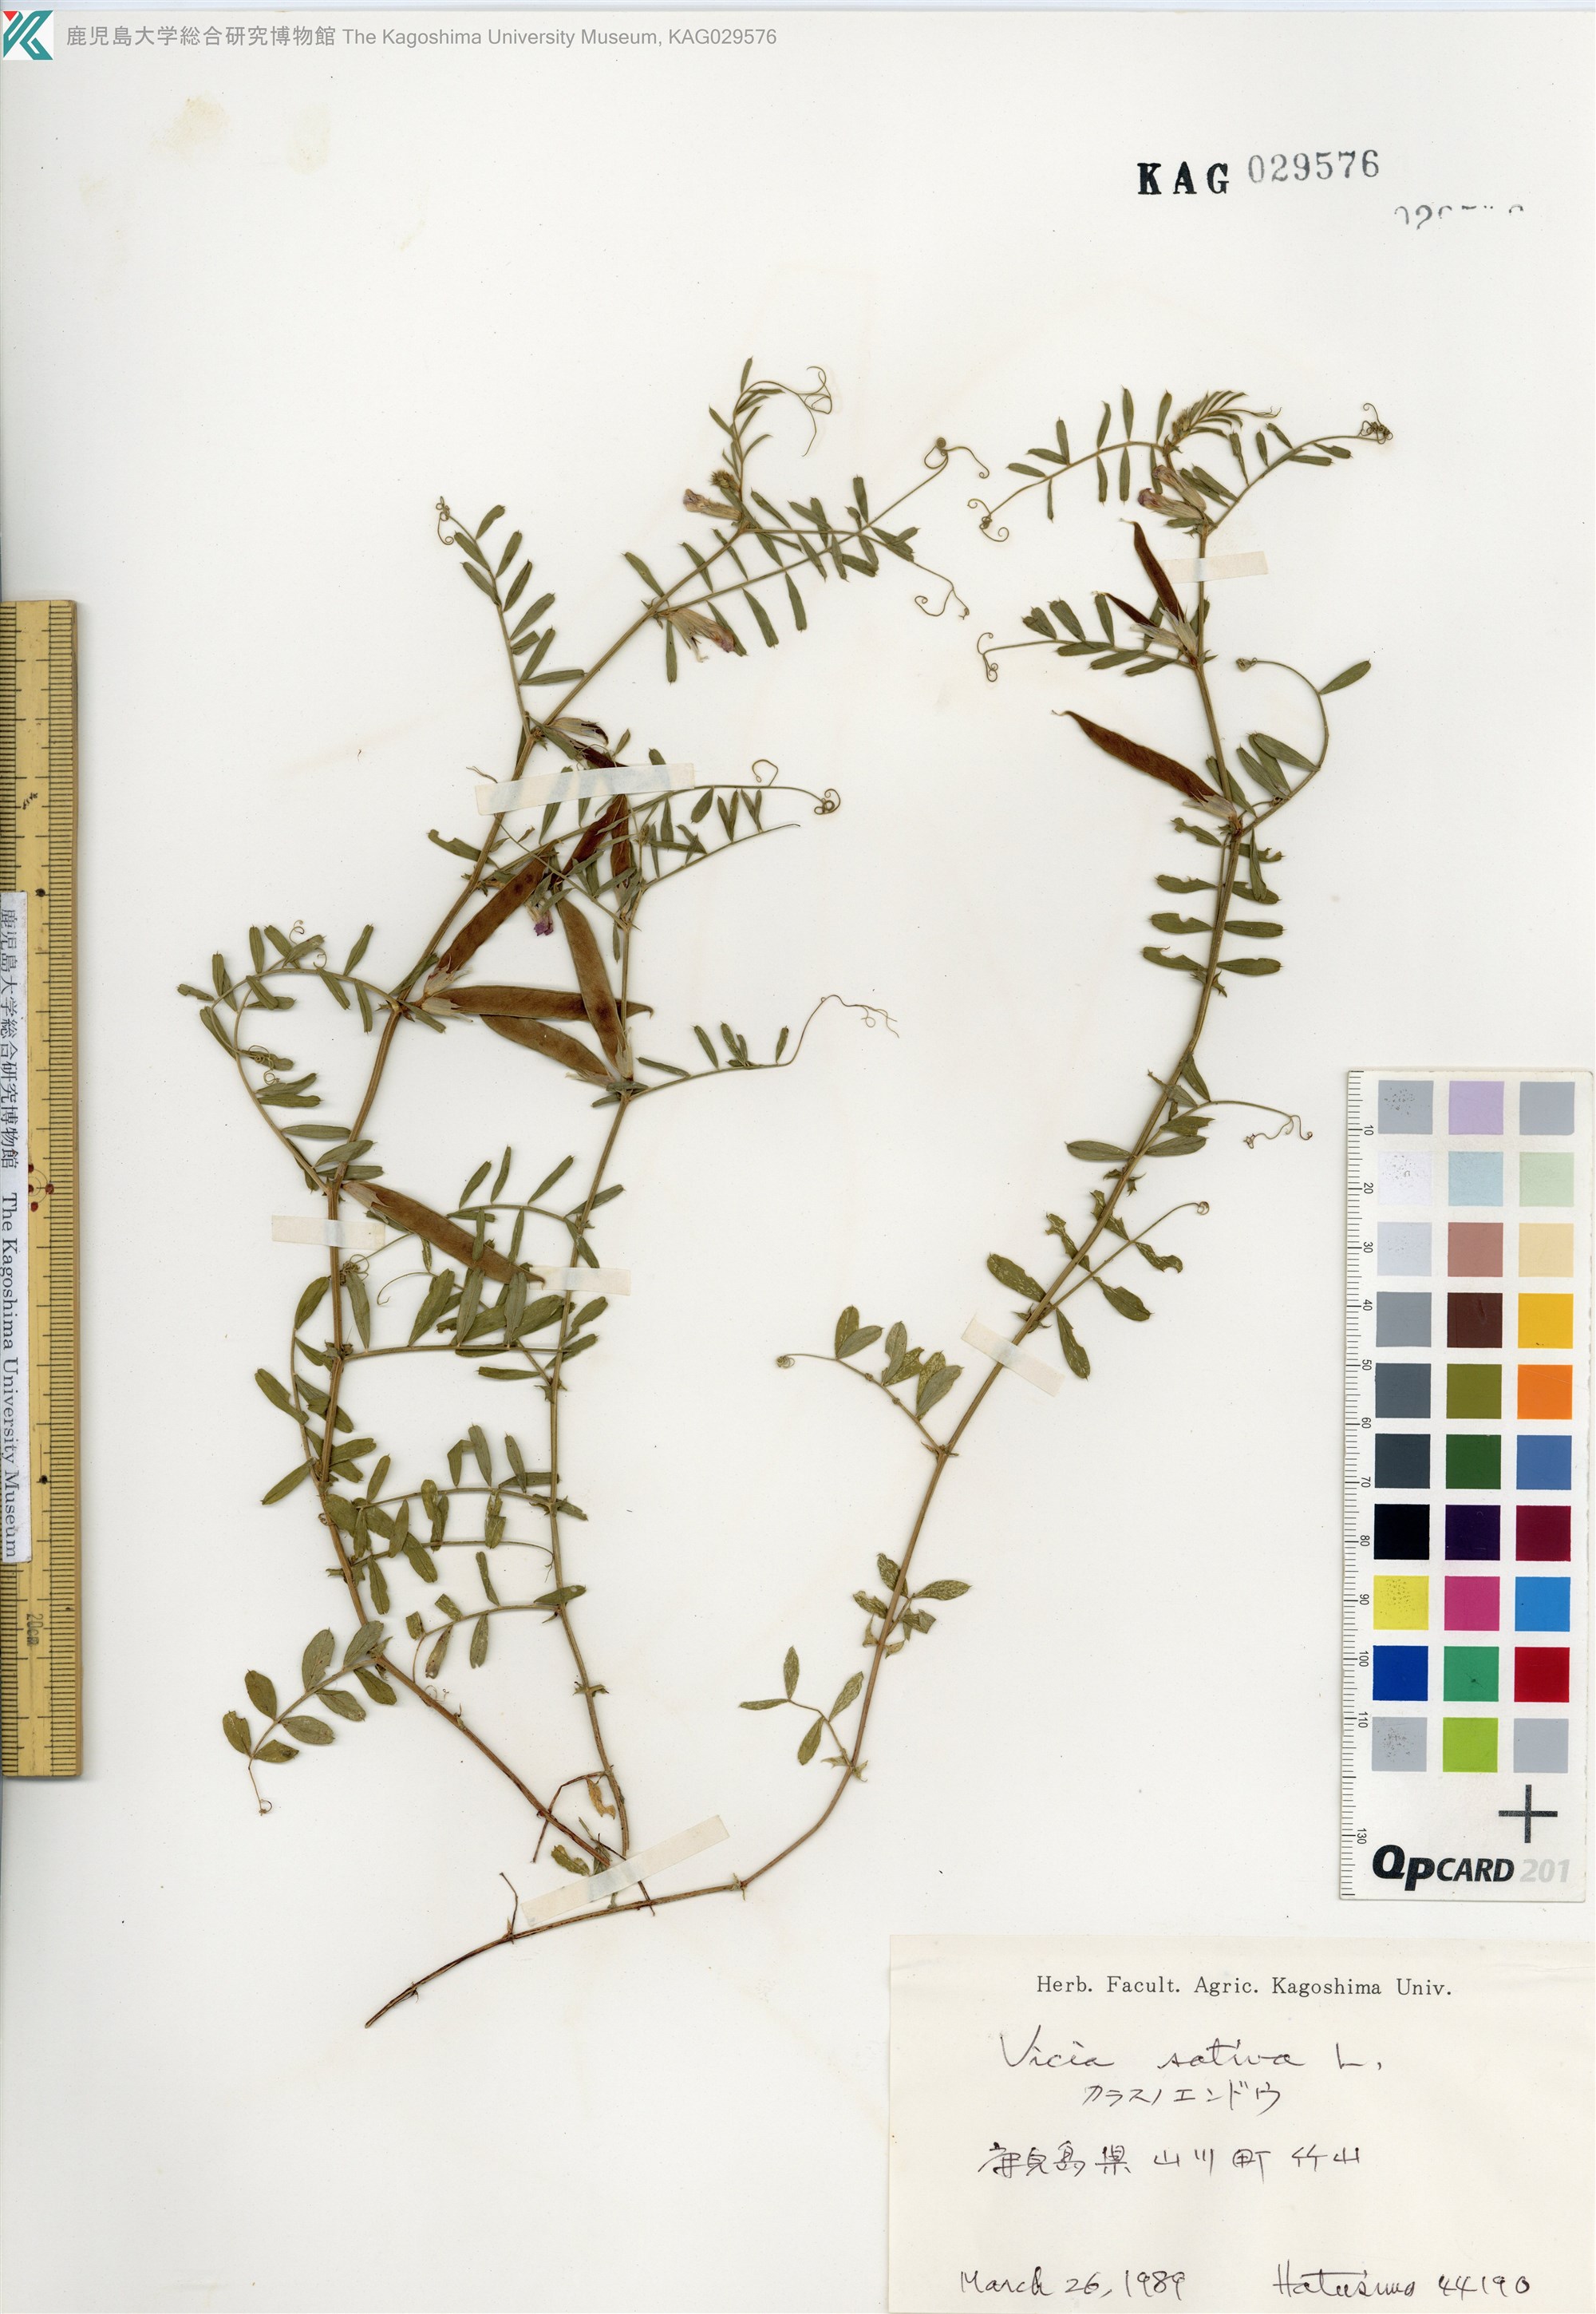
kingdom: Plantae
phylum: Tracheophyta
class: Magnoliopsida
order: Fabales
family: Fabaceae
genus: Vicia
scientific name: Vicia sativa
